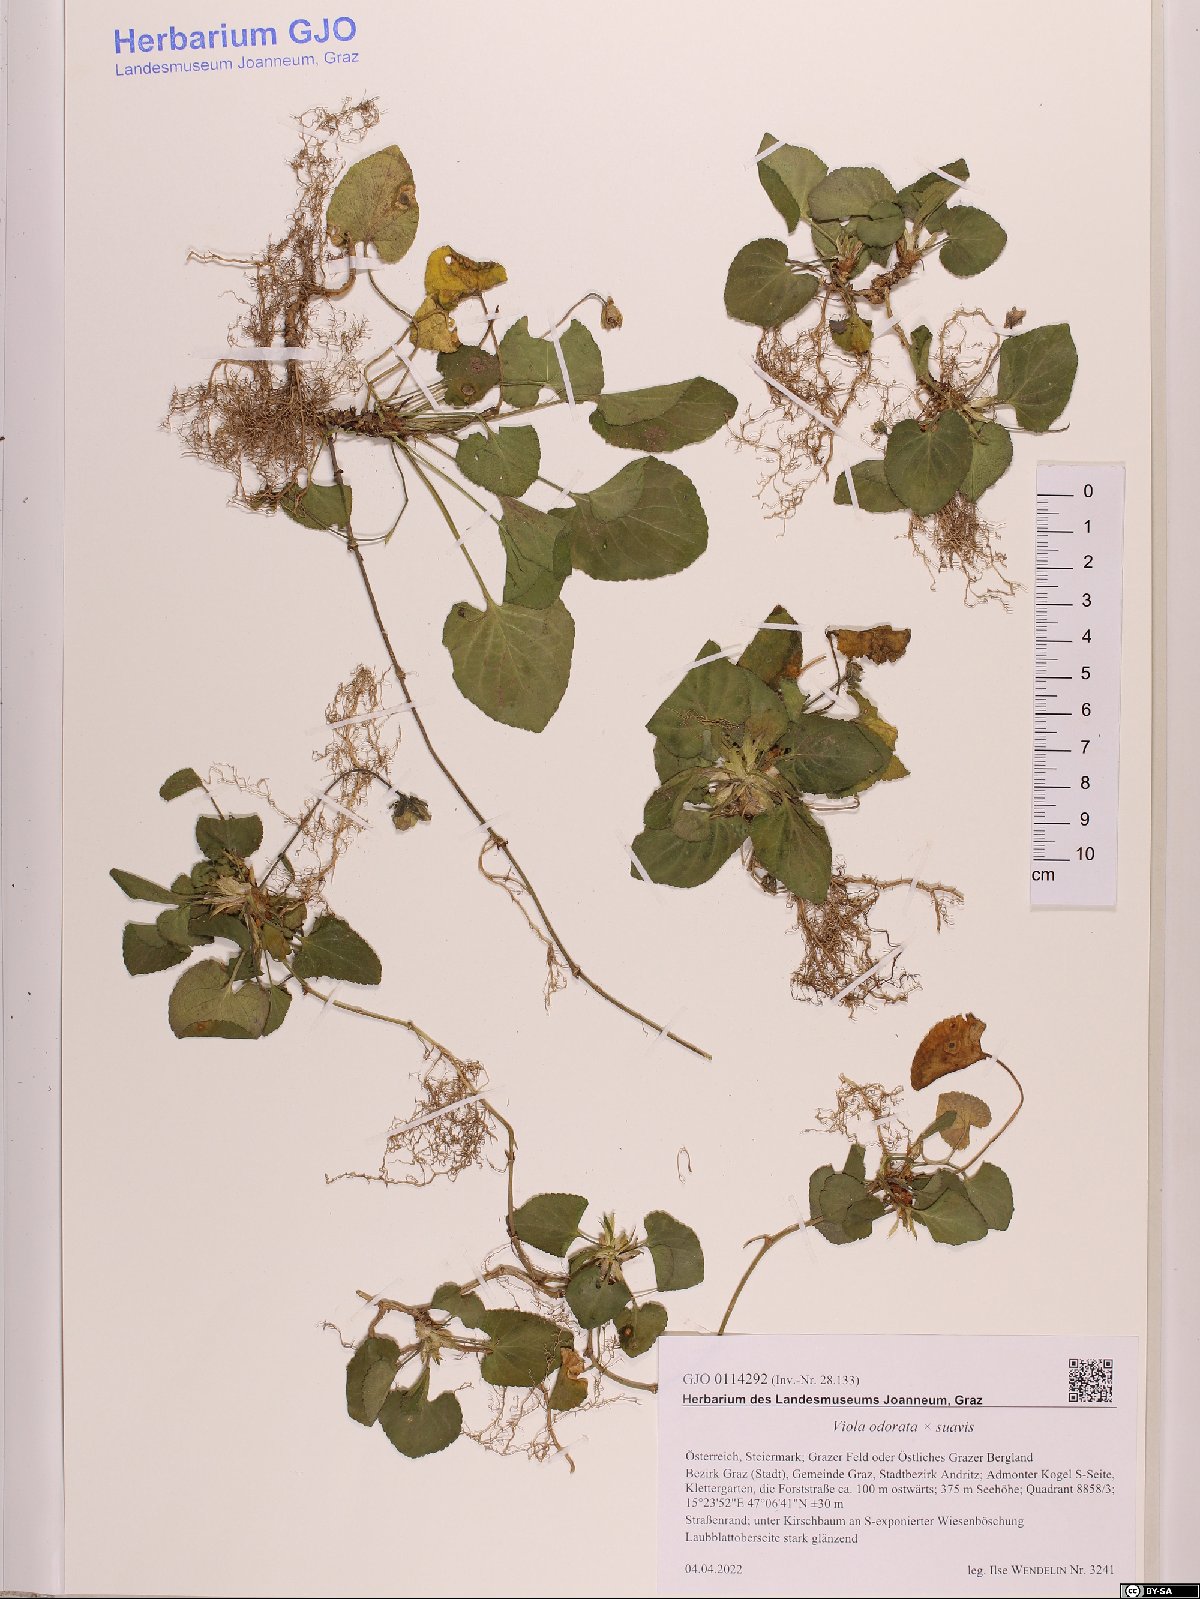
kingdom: Plantae
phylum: Tracheophyta
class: Magnoliopsida
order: Malpighiales
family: Violaceae
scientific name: Violaceae
